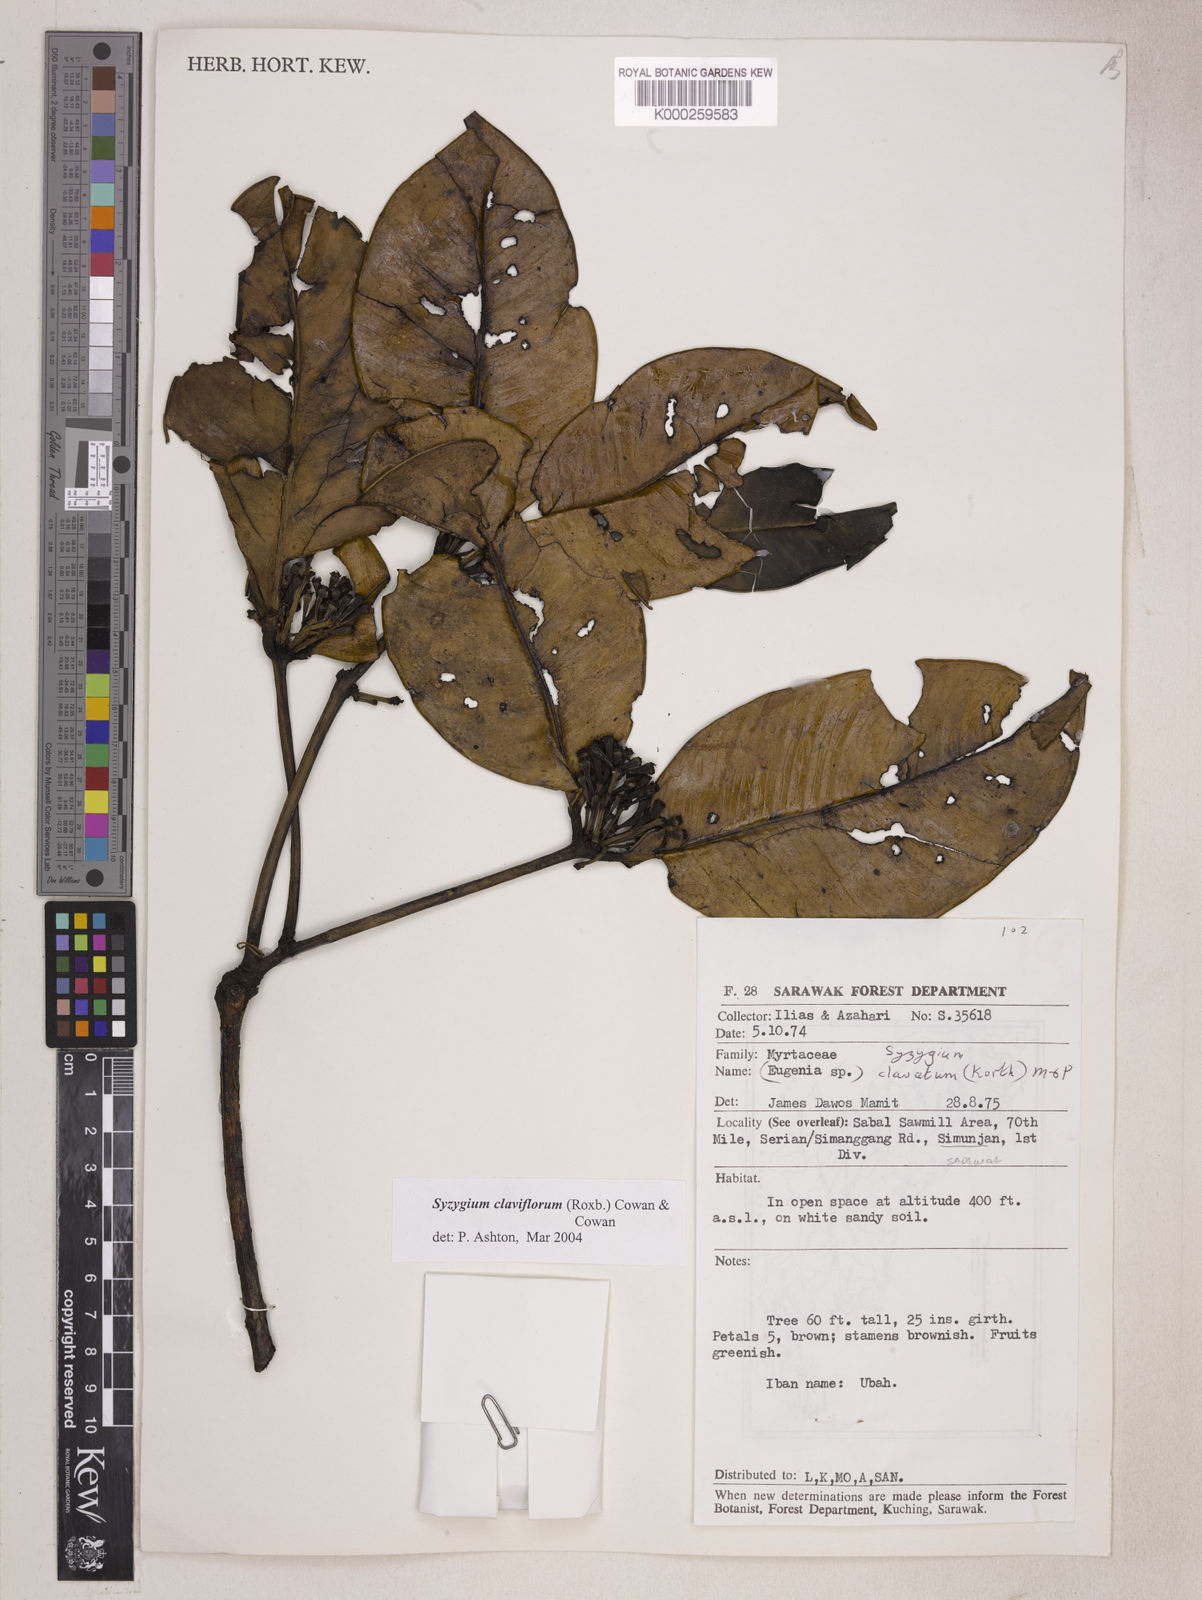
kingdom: Plantae
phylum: Tracheophyta
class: Magnoliopsida
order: Myrtales
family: Myrtaceae
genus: Syzygium
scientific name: Syzygium claviflorum
